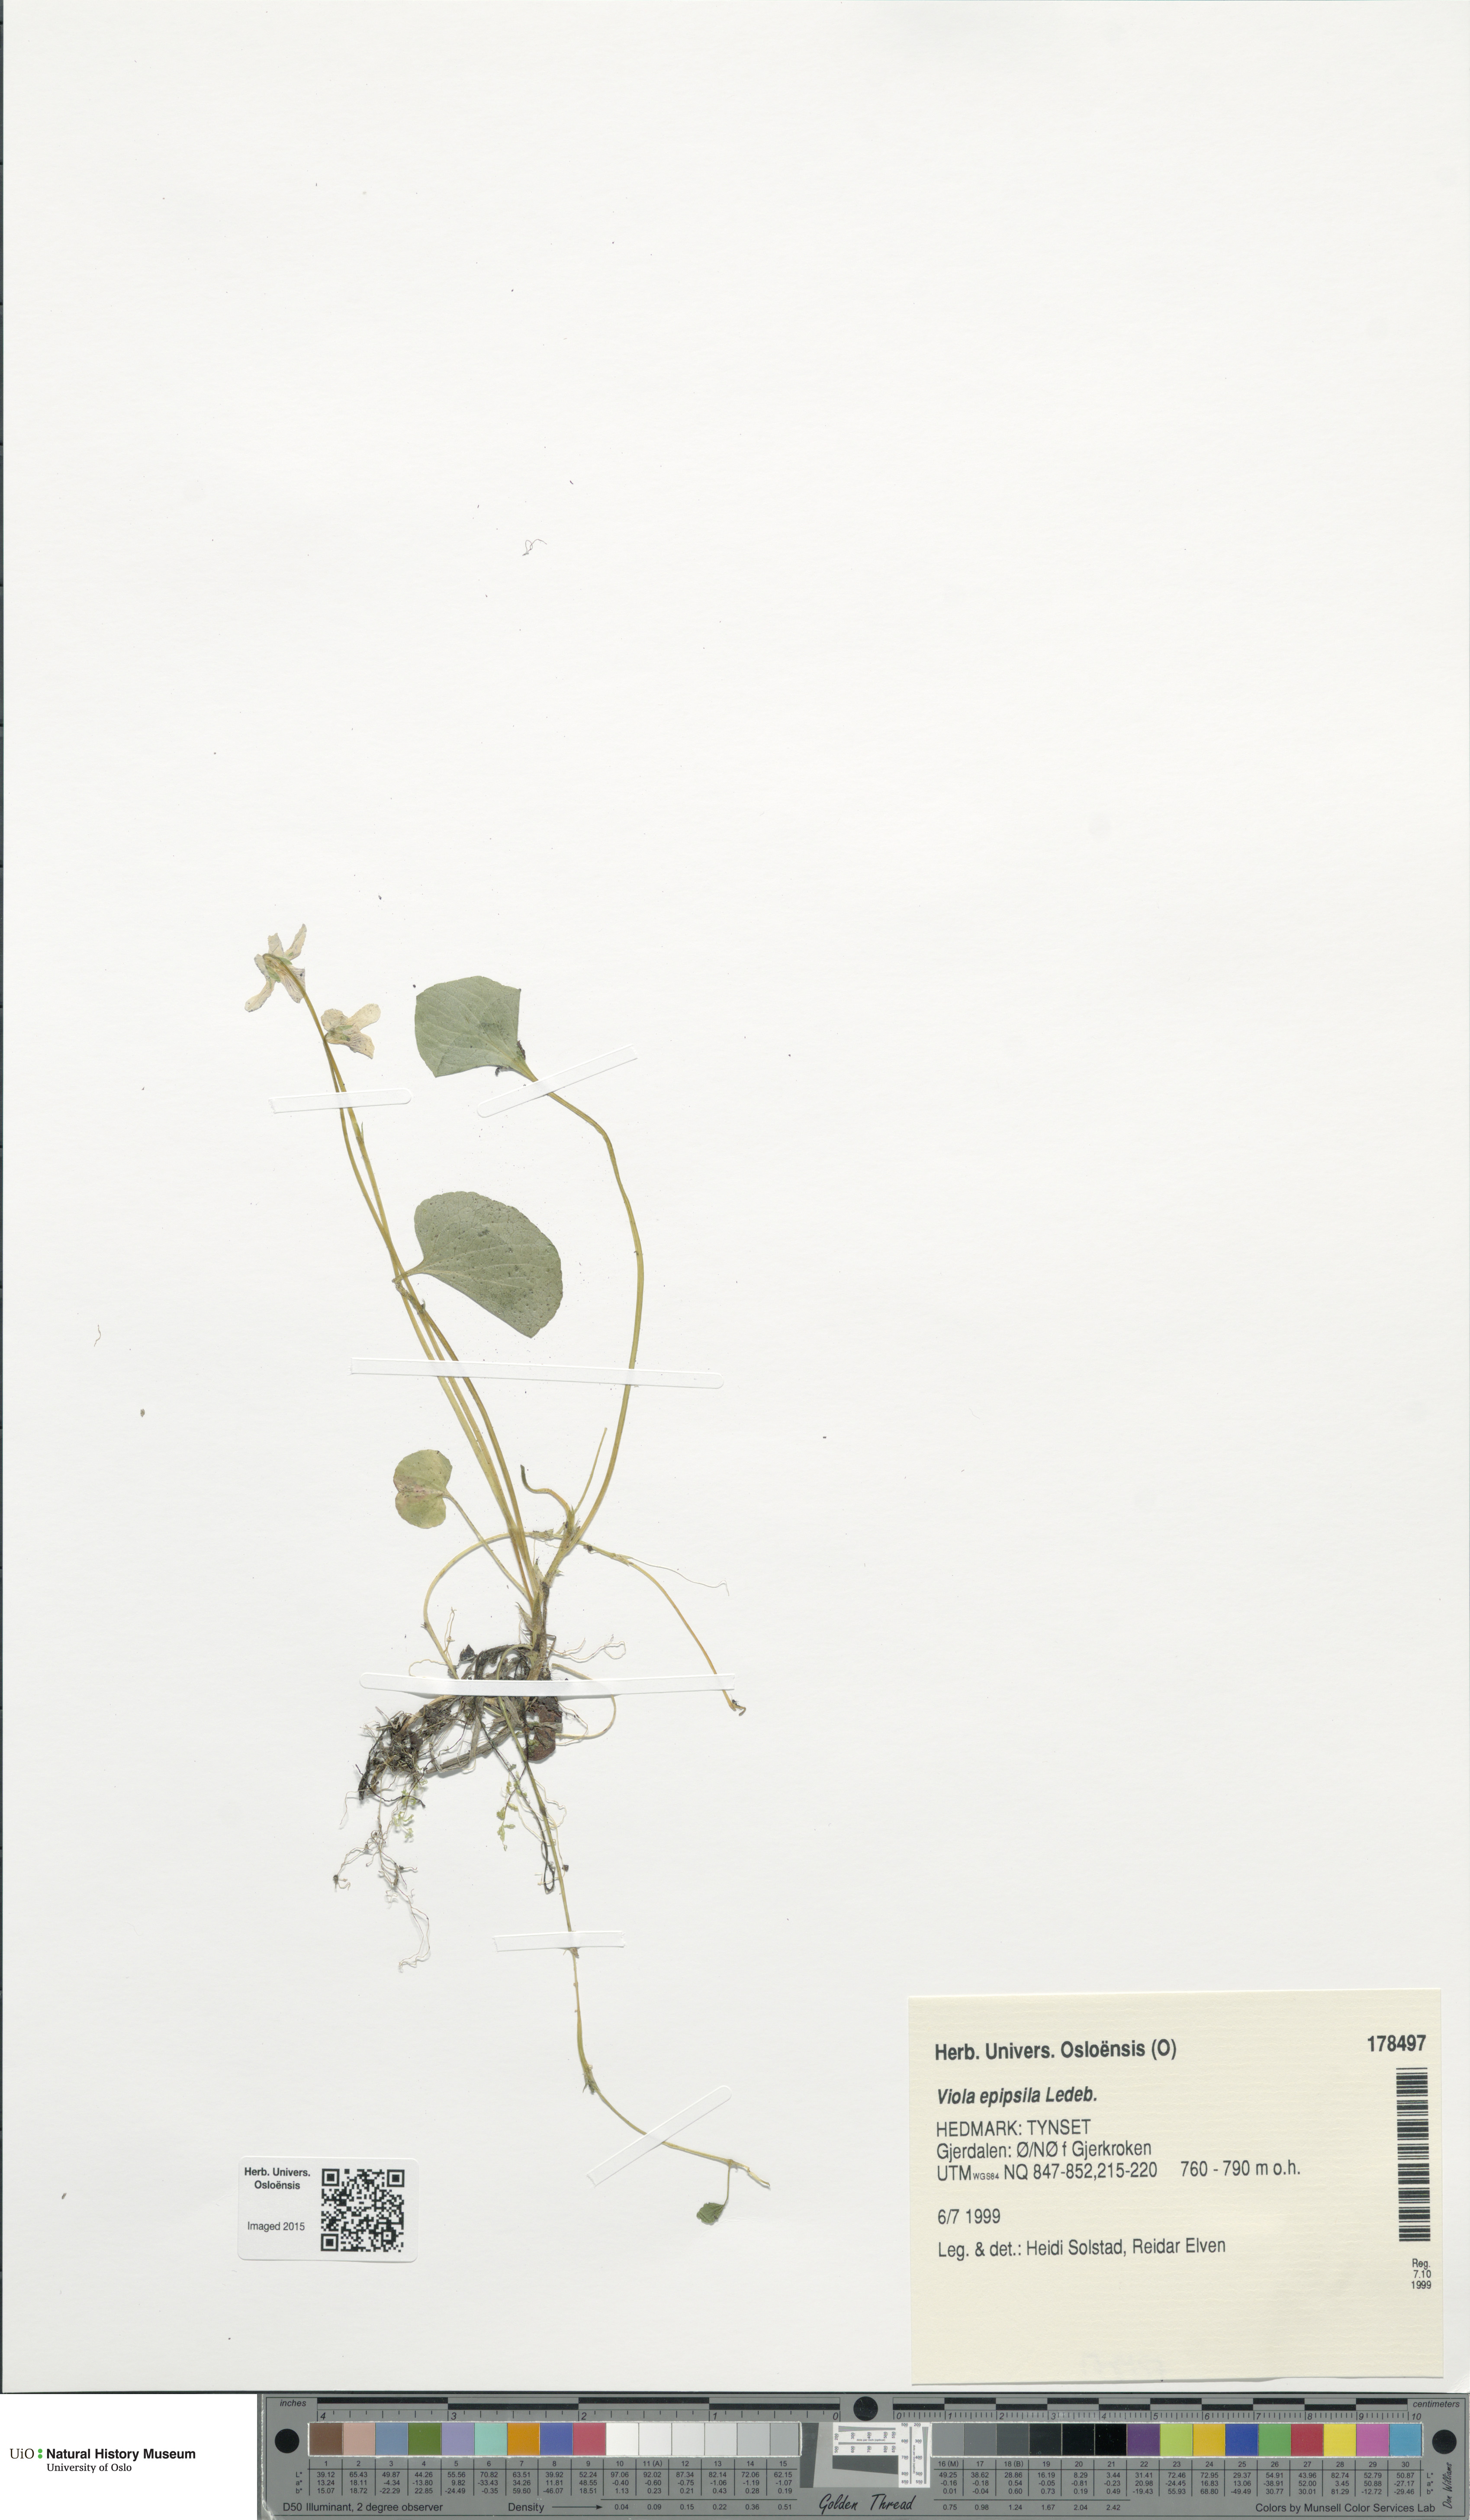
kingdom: Plantae
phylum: Tracheophyta
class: Magnoliopsida
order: Malpighiales
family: Violaceae
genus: Viola
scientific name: Viola epipsila
